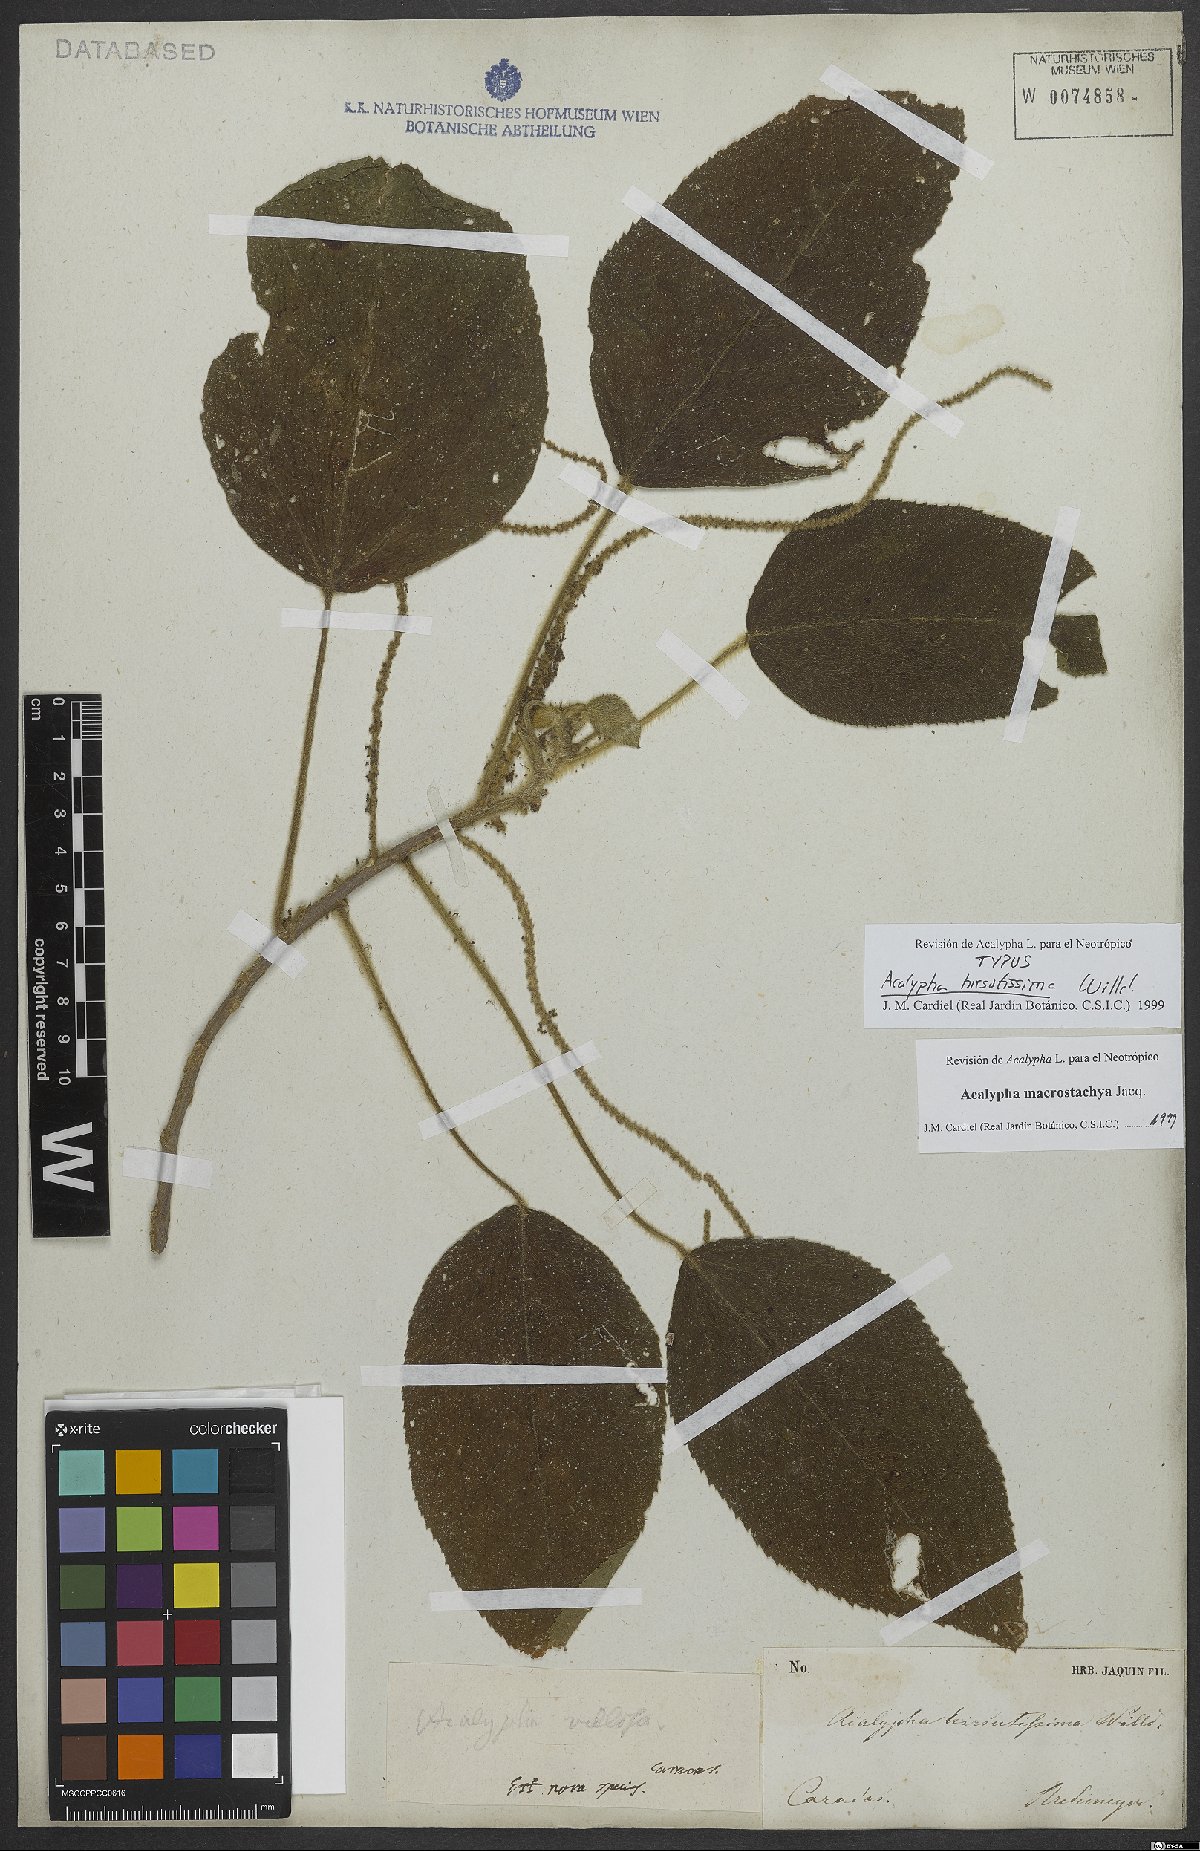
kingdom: Plantae
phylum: Tracheophyta
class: Magnoliopsida
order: Malpighiales
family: Euphorbiaceae
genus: Acalypha
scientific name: Acalypha macrostachya
